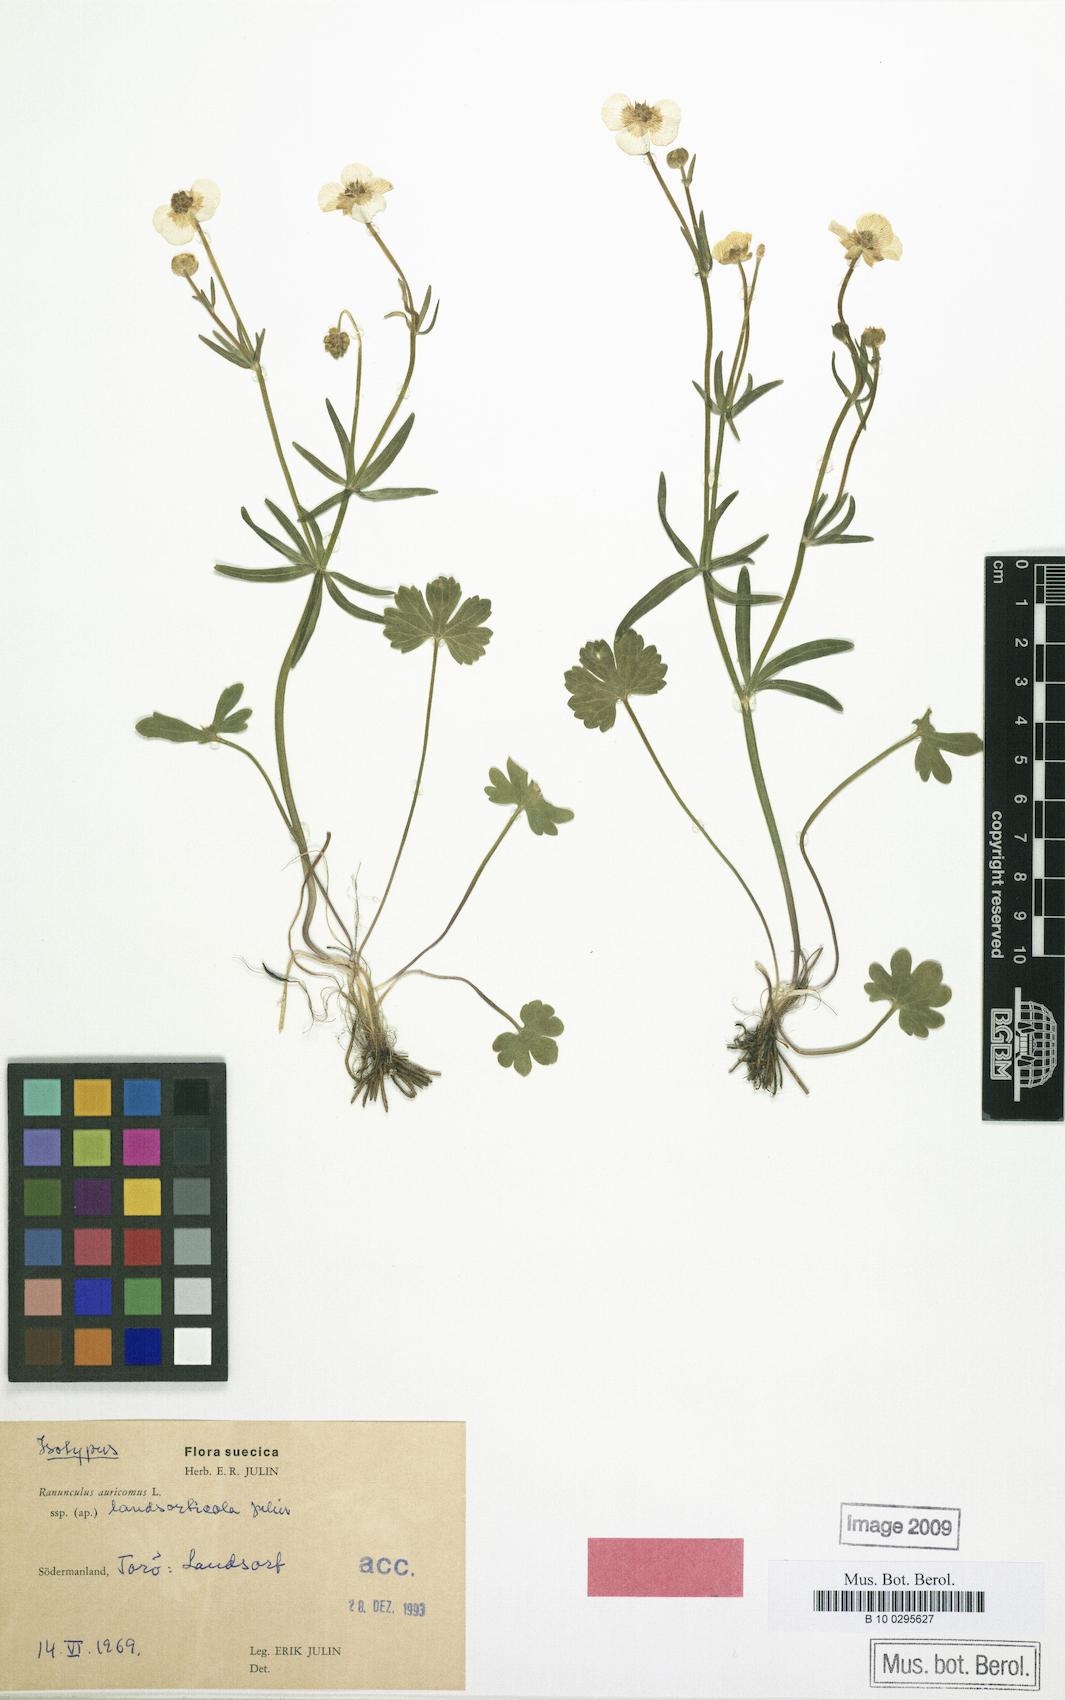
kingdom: Plantae
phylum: Tracheophyta
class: Magnoliopsida
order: Ranunculales
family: Ranunculaceae
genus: Ranunculus
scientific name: Ranunculus landsorticola
